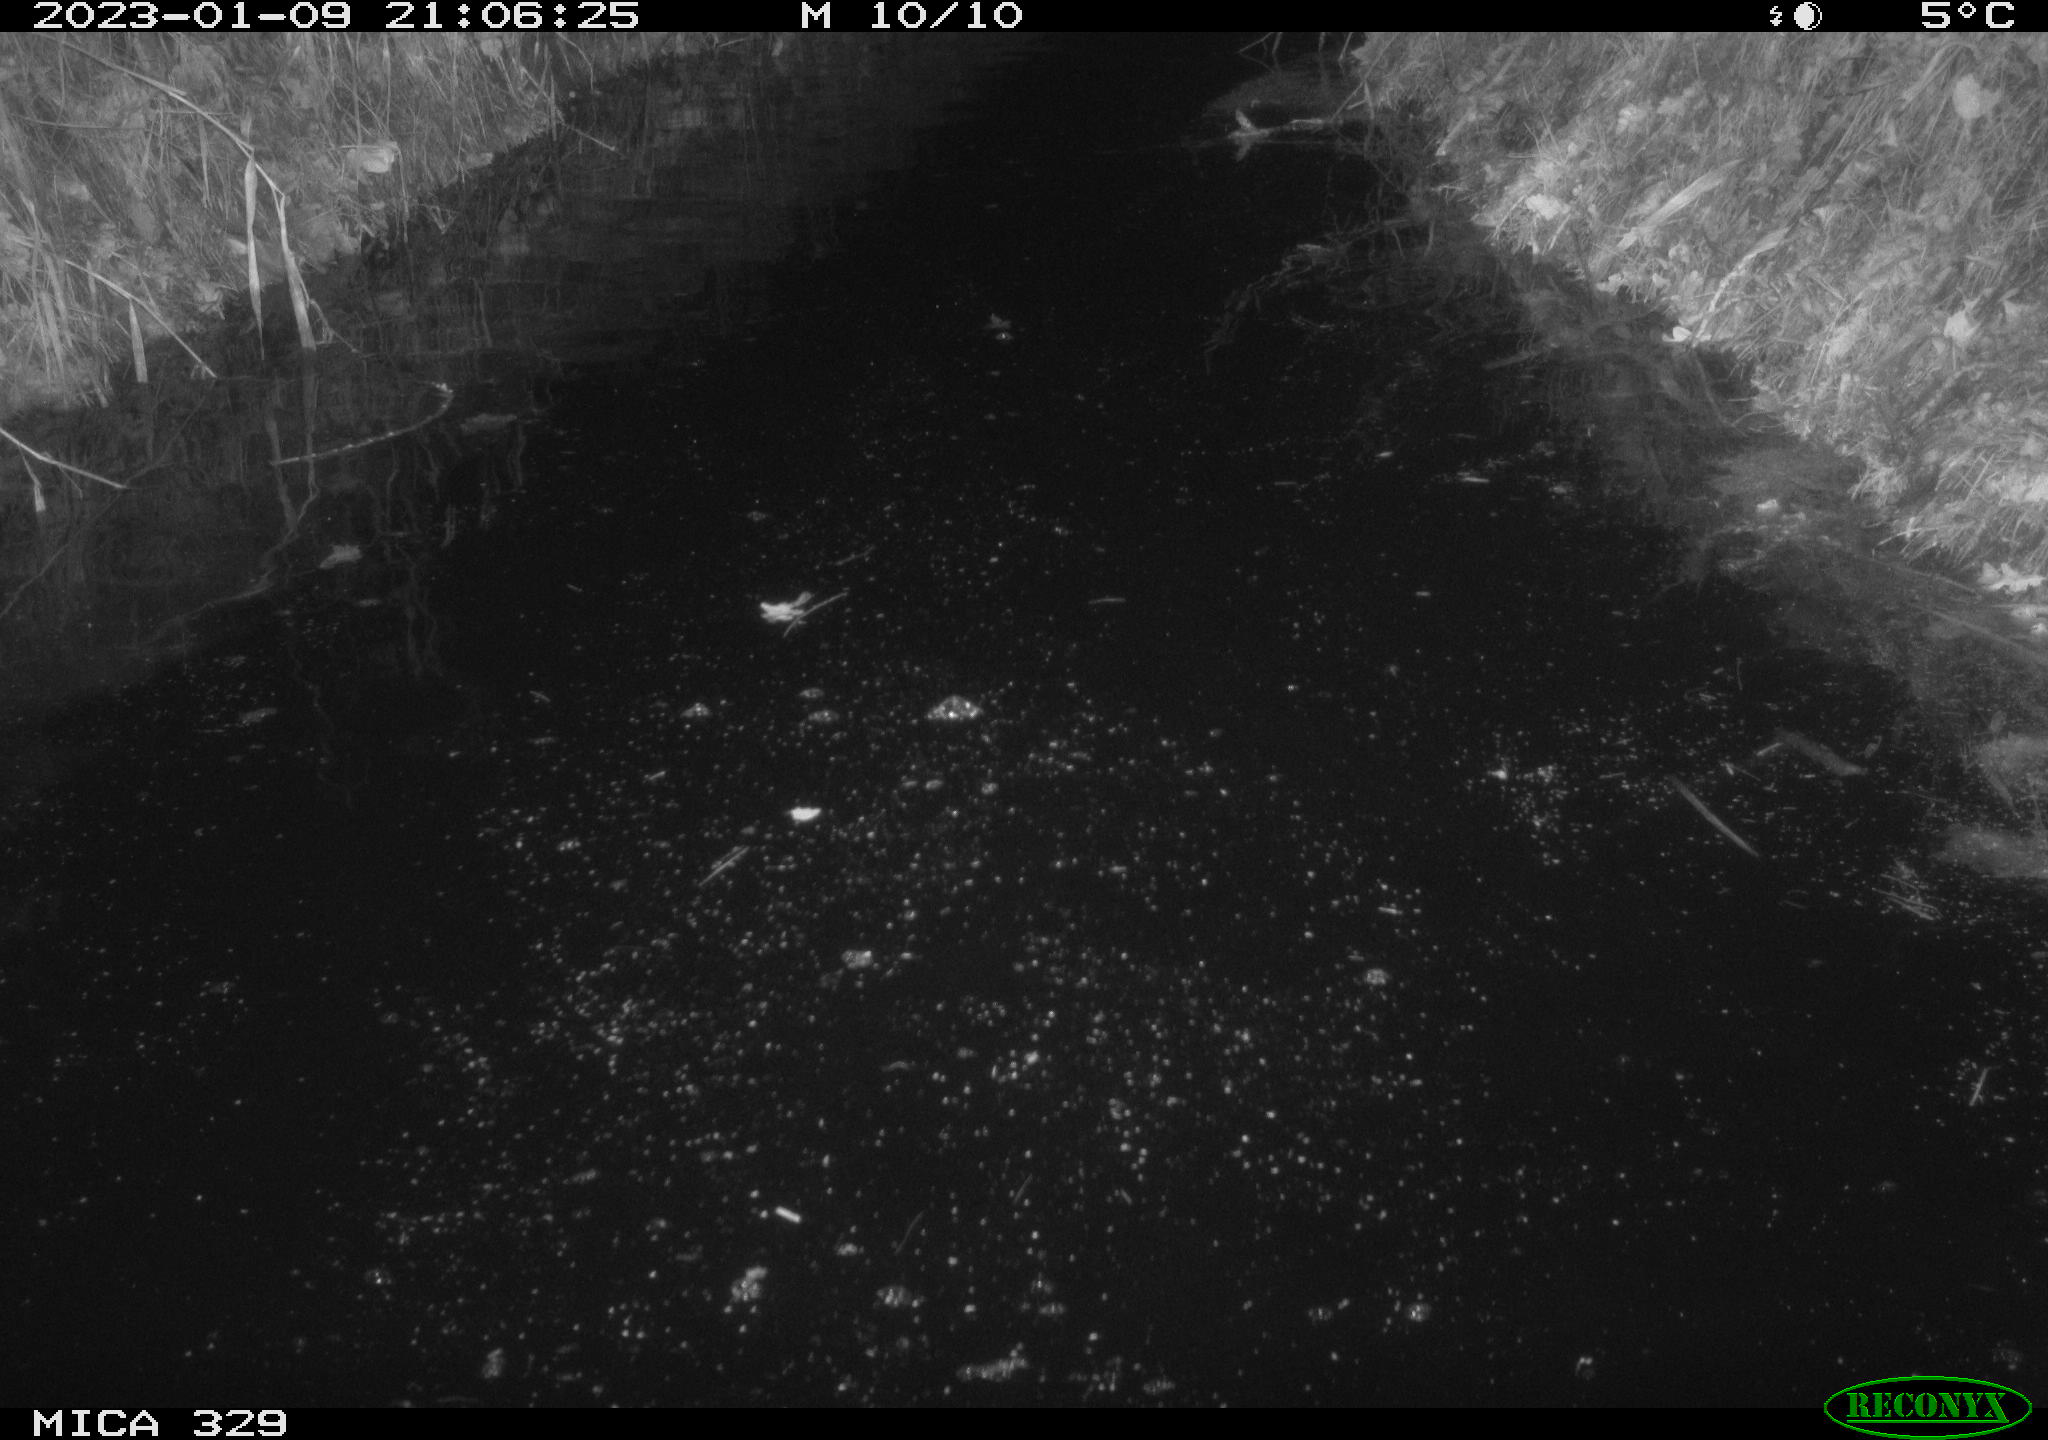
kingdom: Animalia
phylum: Chordata
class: Mammalia
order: Rodentia
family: Cricetidae
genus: Ondatra
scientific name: Ondatra zibethicus
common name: Muskrat
